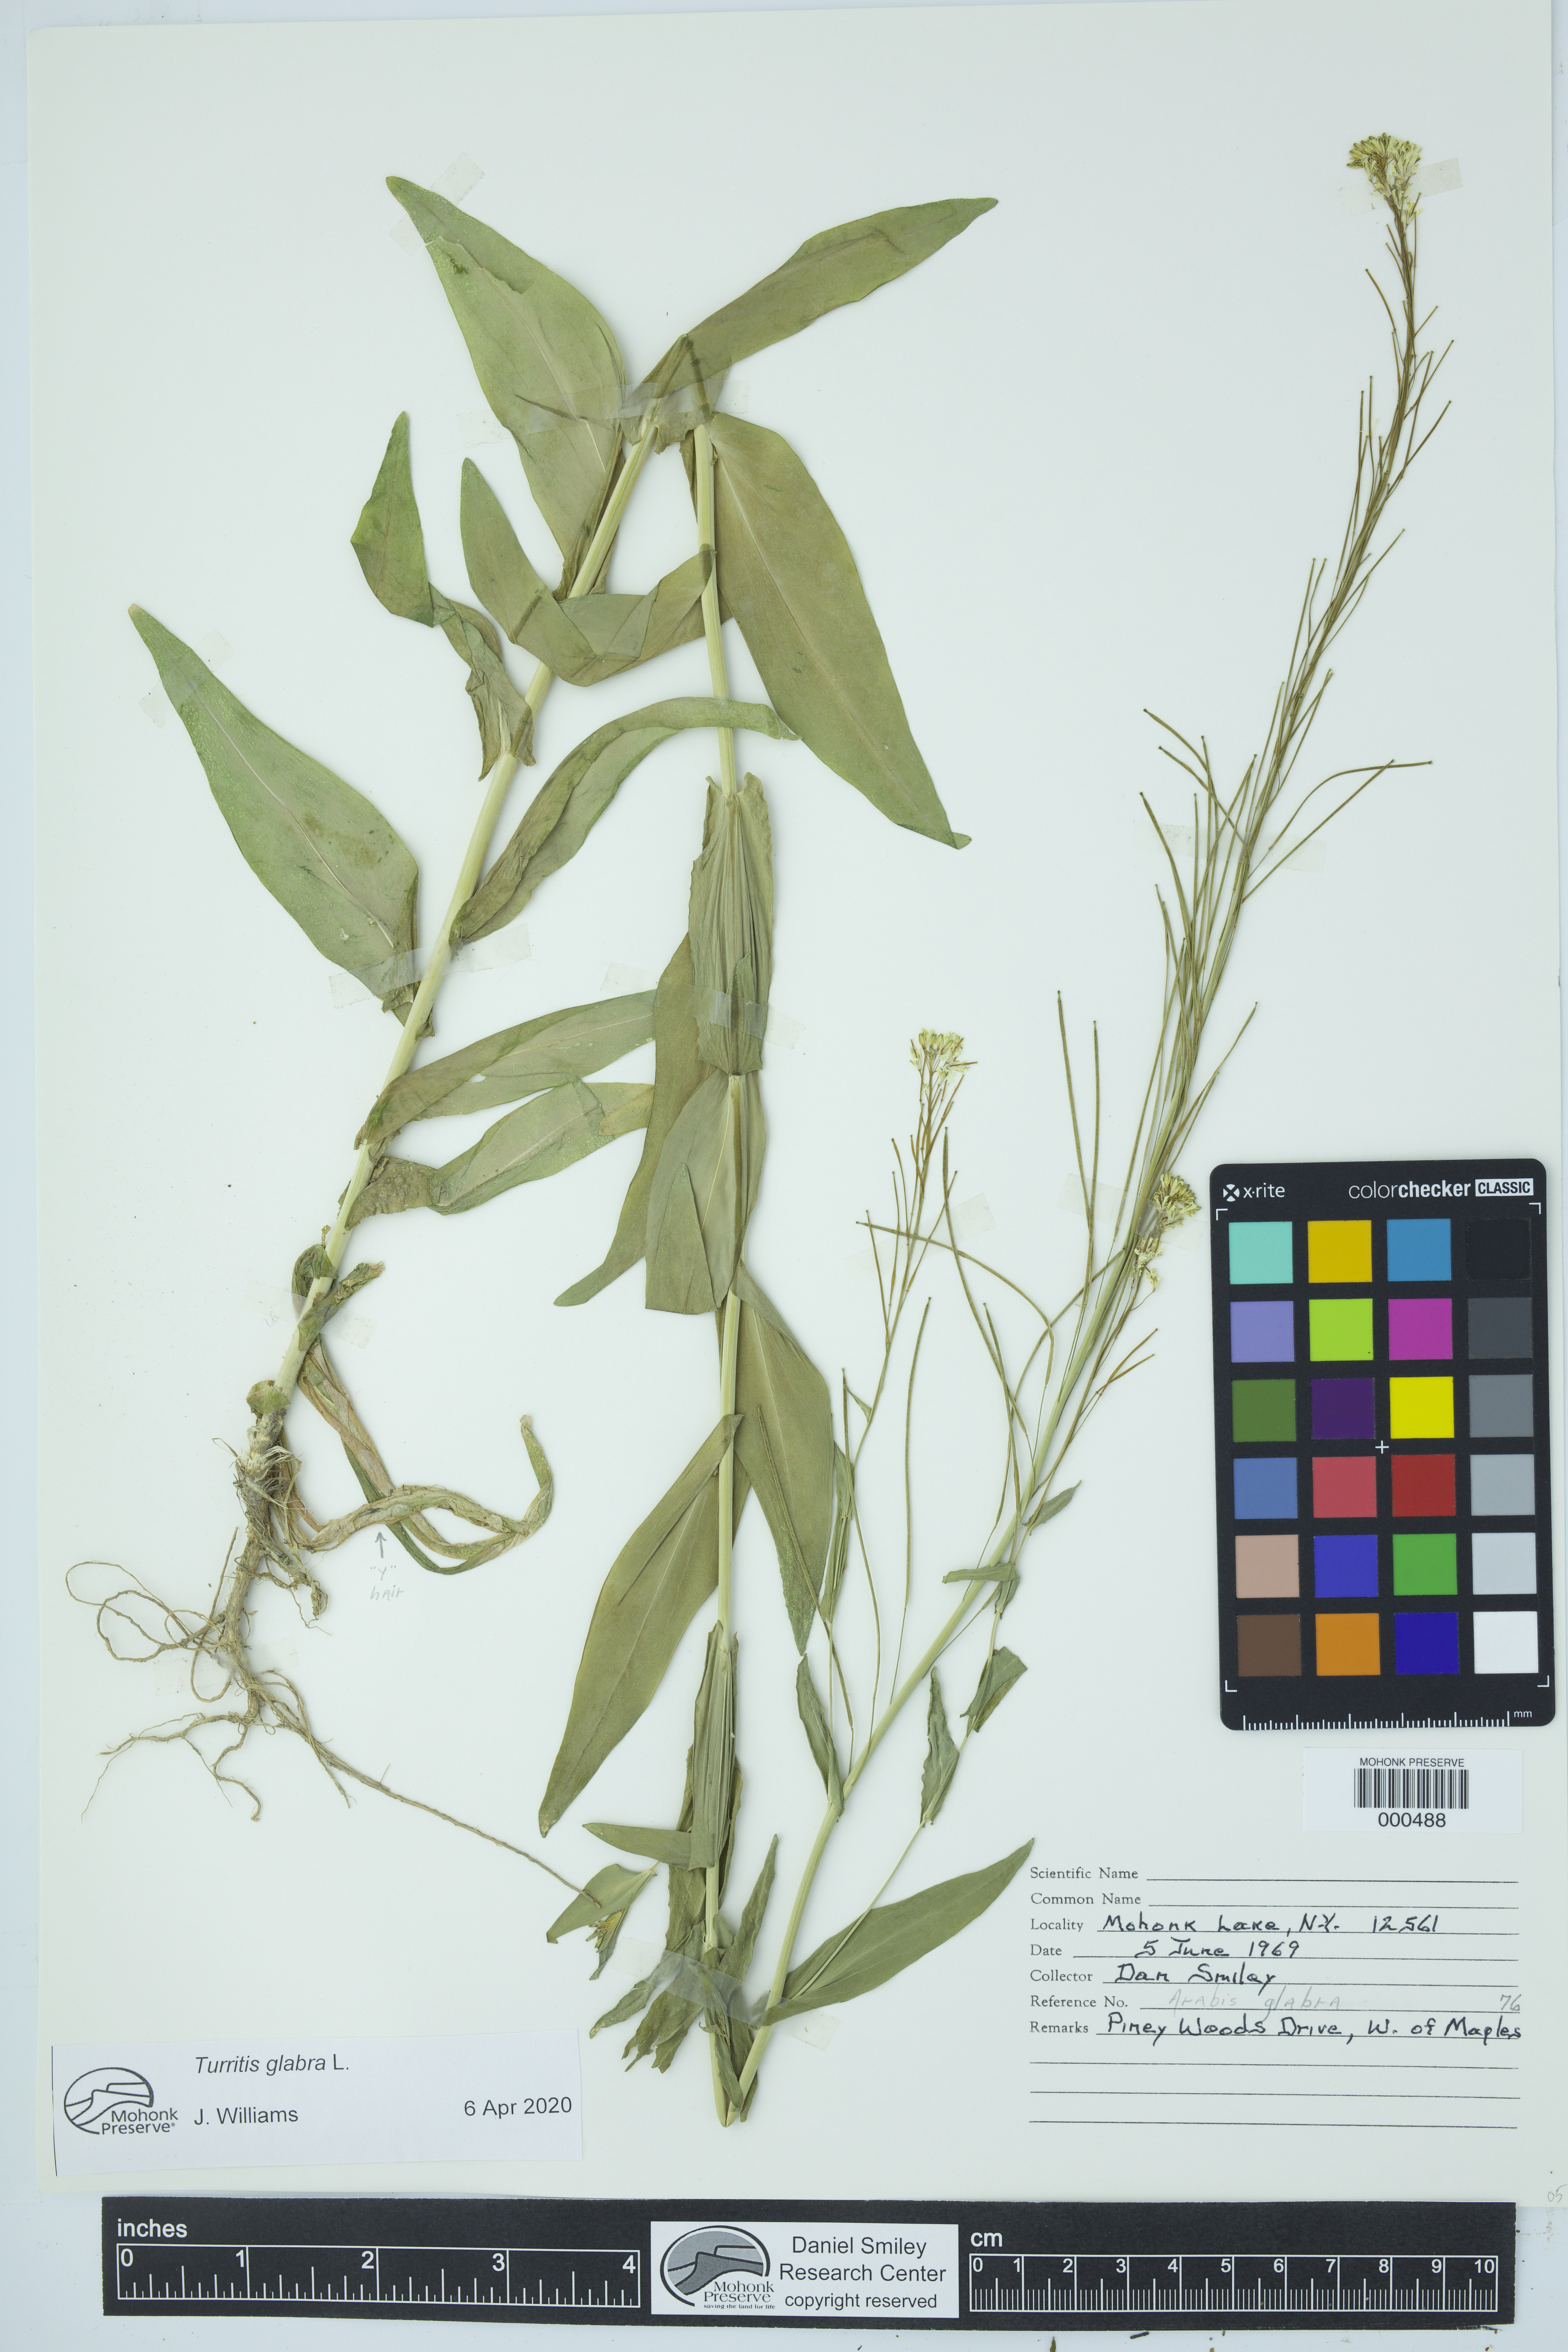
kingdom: Plantae
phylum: Tracheophyta
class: Magnoliopsida
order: Brassicales
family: Brassicaceae
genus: Turritis
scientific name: Turritis glabra
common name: Tower rockcress
